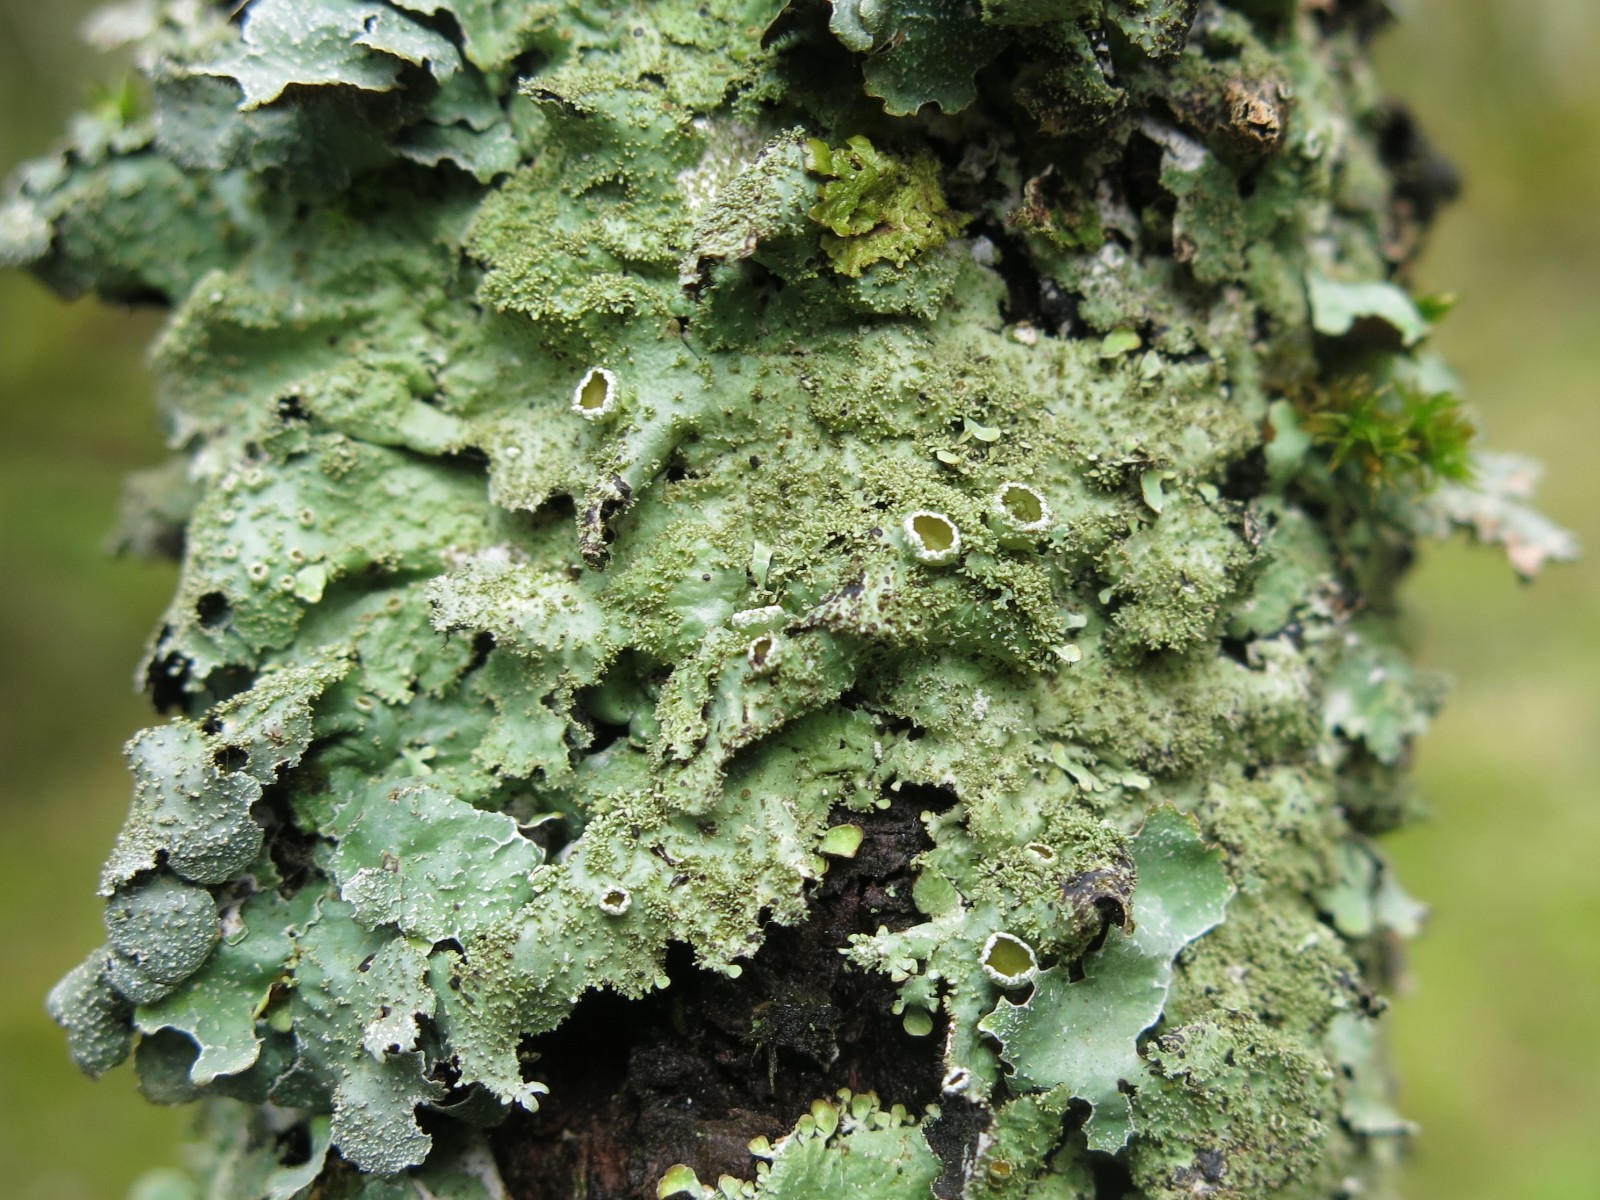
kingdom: Fungi
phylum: Ascomycota
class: Lecanoromycetes
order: Lecanorales
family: Parmeliaceae
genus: Parmelia
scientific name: Parmelia ernstiae
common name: rimstift-skållav
